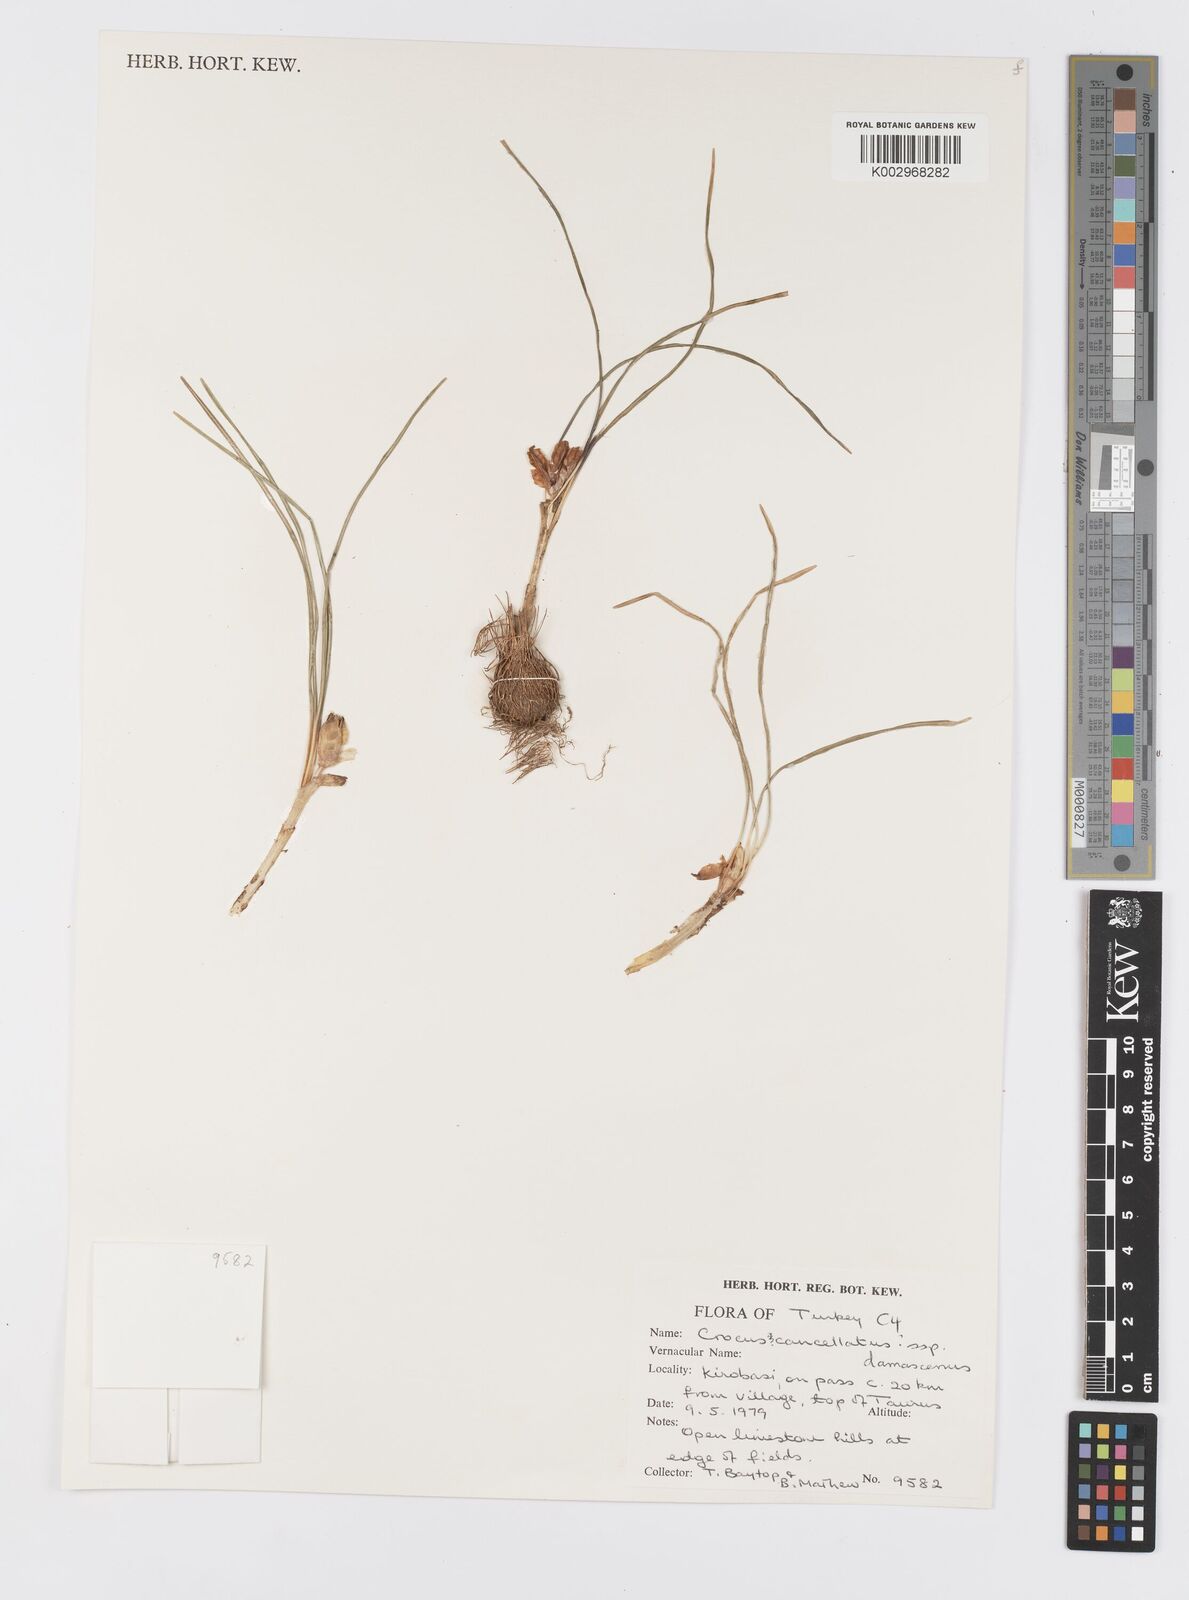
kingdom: Plantae
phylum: Tracheophyta
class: Liliopsida
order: Asparagales
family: Iridaceae
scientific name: Iridaceae
